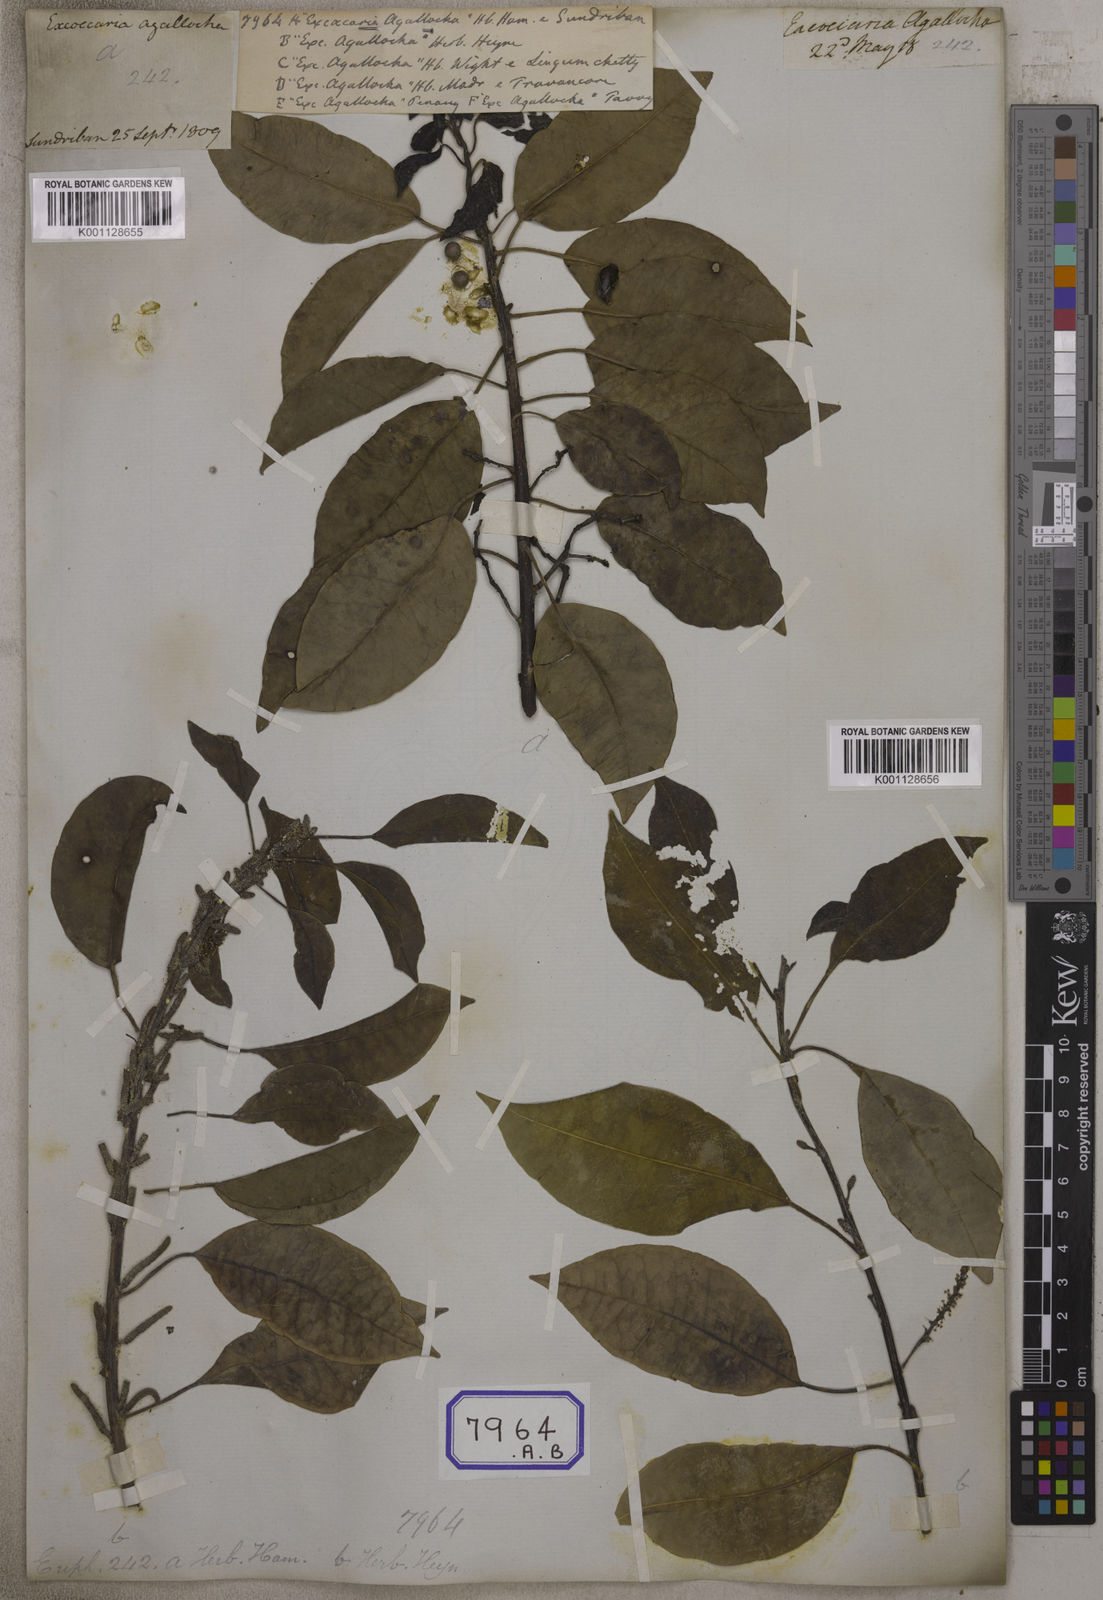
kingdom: Plantae
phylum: Tracheophyta
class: Magnoliopsida
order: Malpighiales
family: Euphorbiaceae
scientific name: Euphorbiaceae
